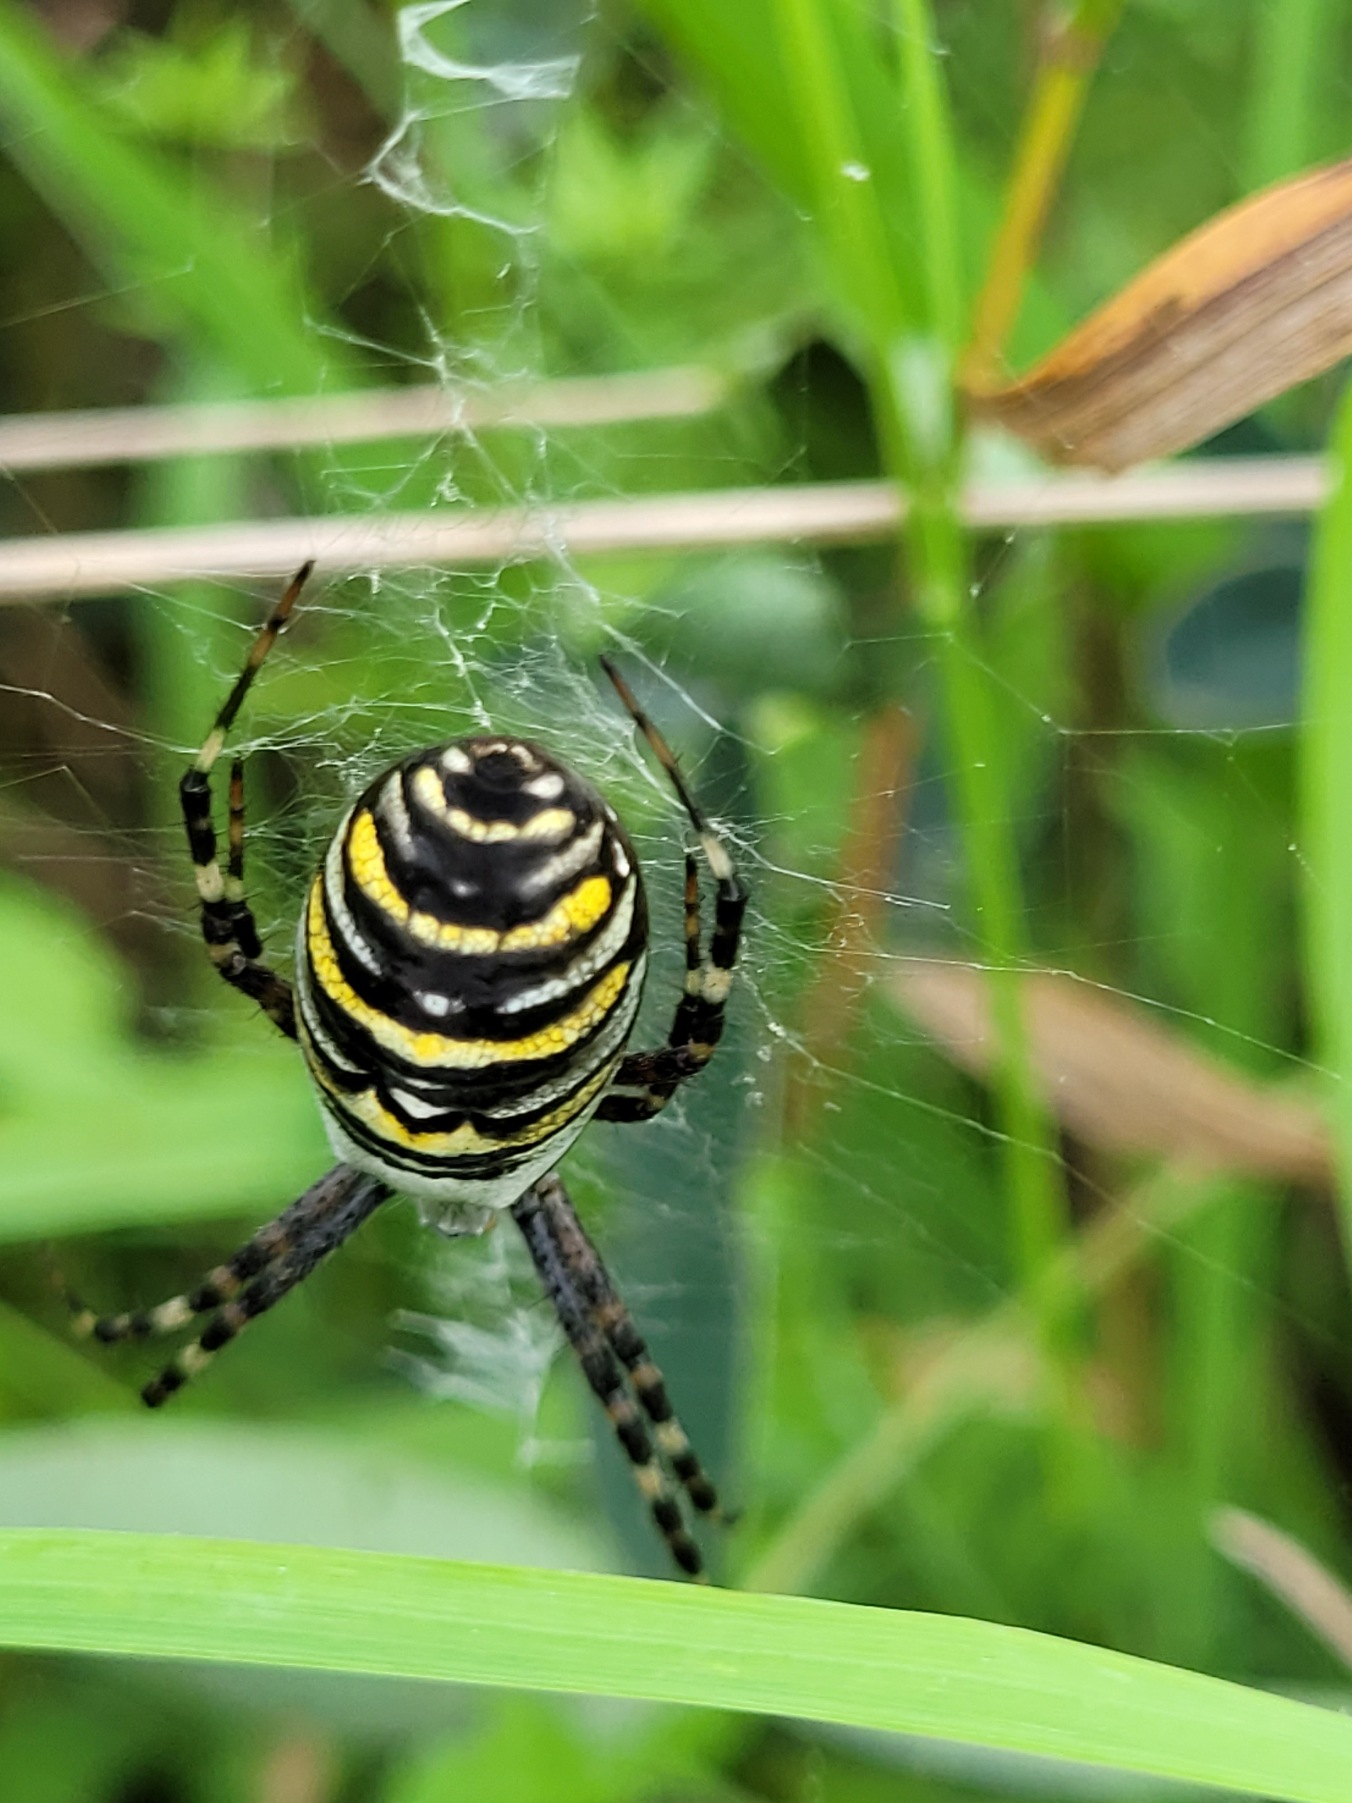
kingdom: Animalia
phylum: Arthropoda
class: Arachnida
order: Araneae
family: Araneidae
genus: Argiope
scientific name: Argiope bruennichi
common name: Hvepseedderkop
